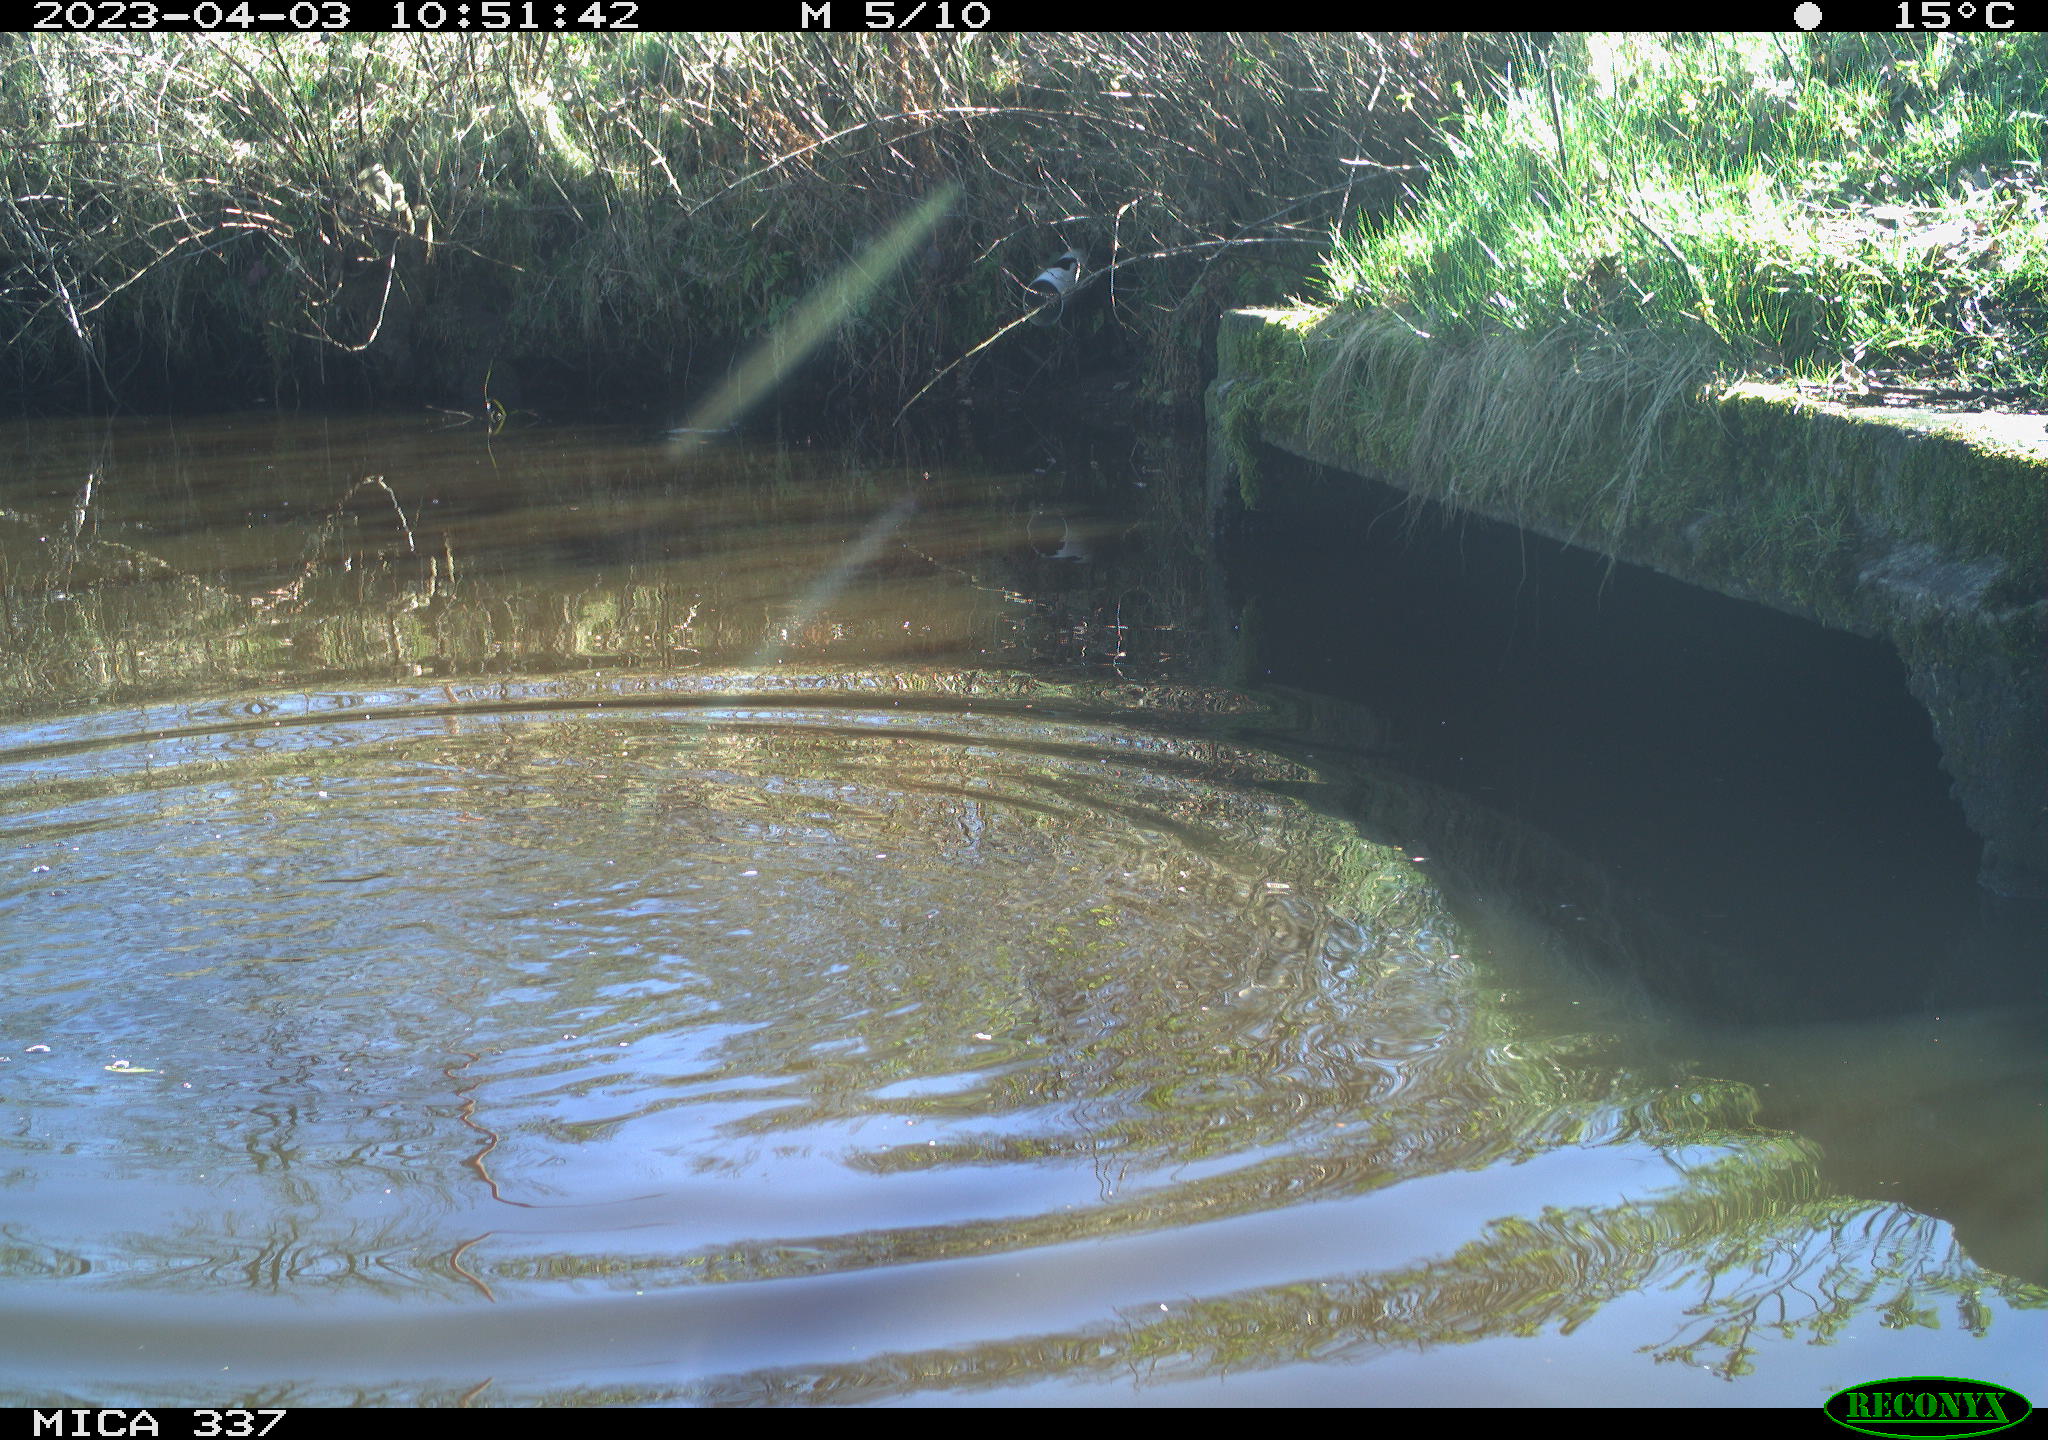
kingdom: Animalia
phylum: Chordata
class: Aves
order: Gruiformes
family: Rallidae
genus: Gallinula
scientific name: Gallinula chloropus
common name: Common moorhen
